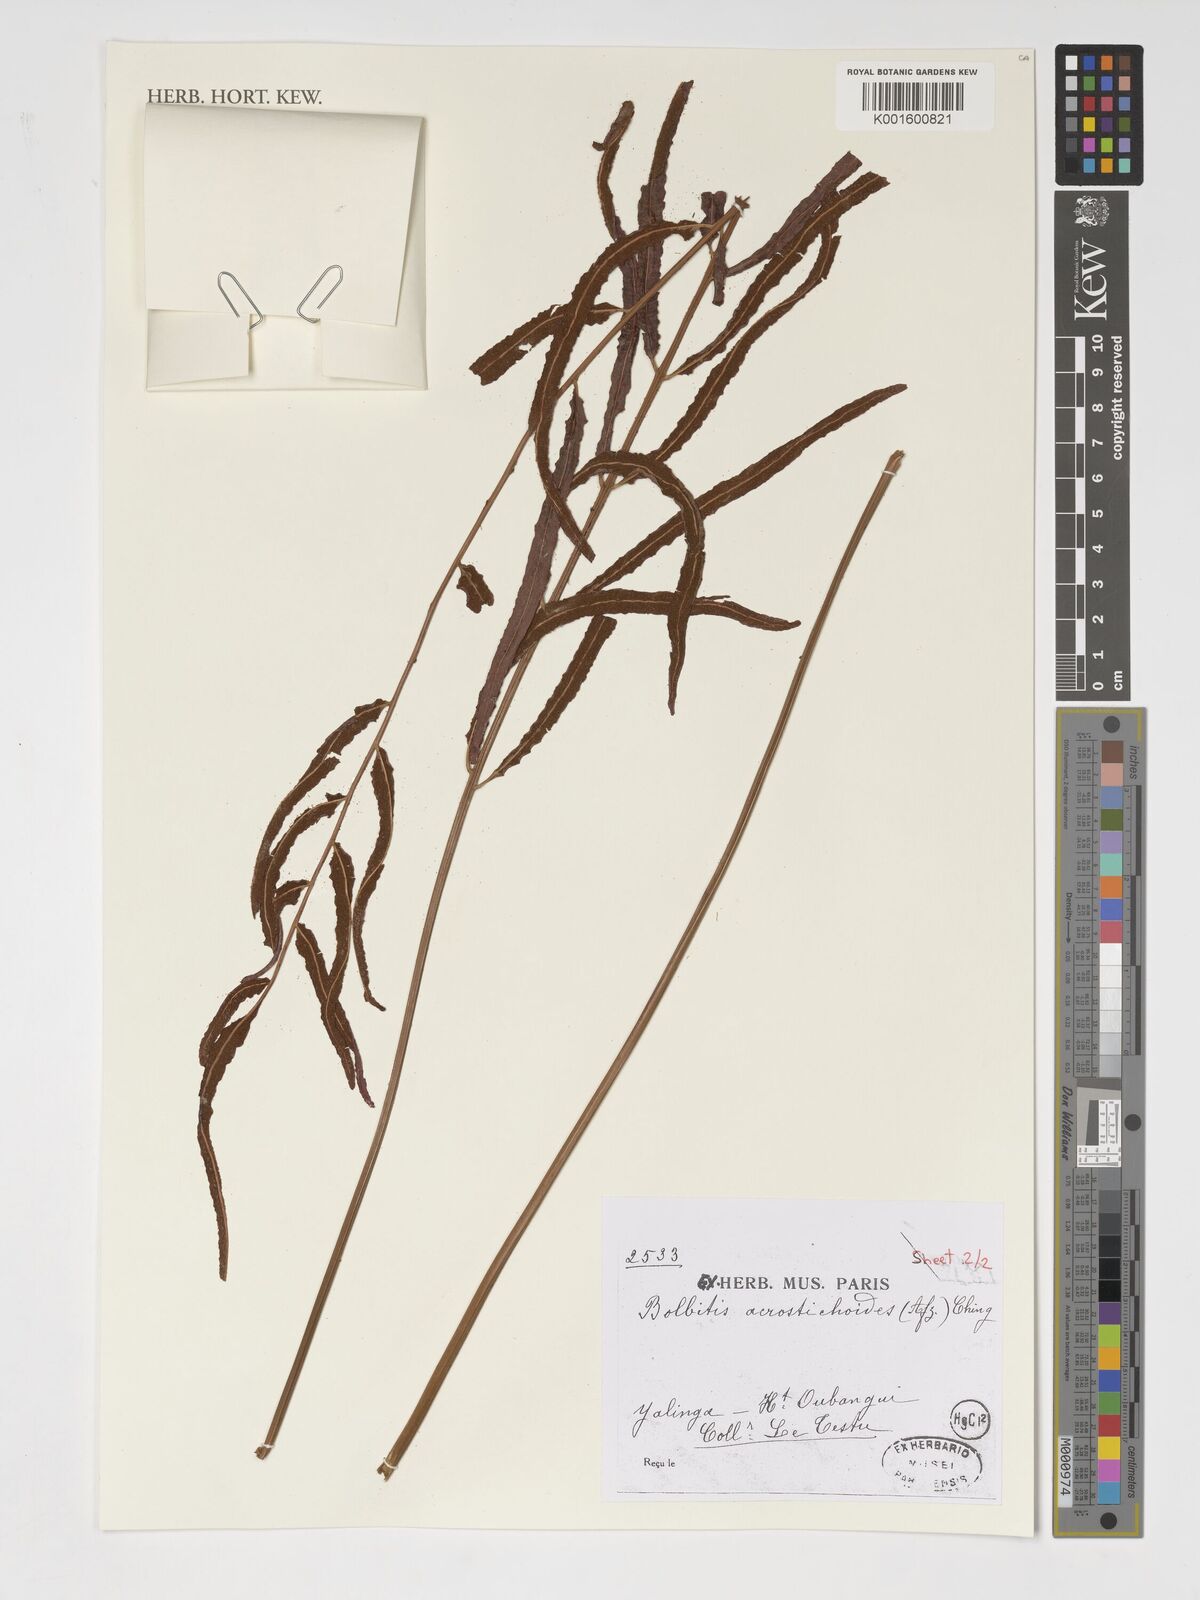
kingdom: Plantae
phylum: Tracheophyta
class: Polypodiopsida
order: Polypodiales
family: Dryopteridaceae
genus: Bolbitis
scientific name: Bolbitis acrostichoides
